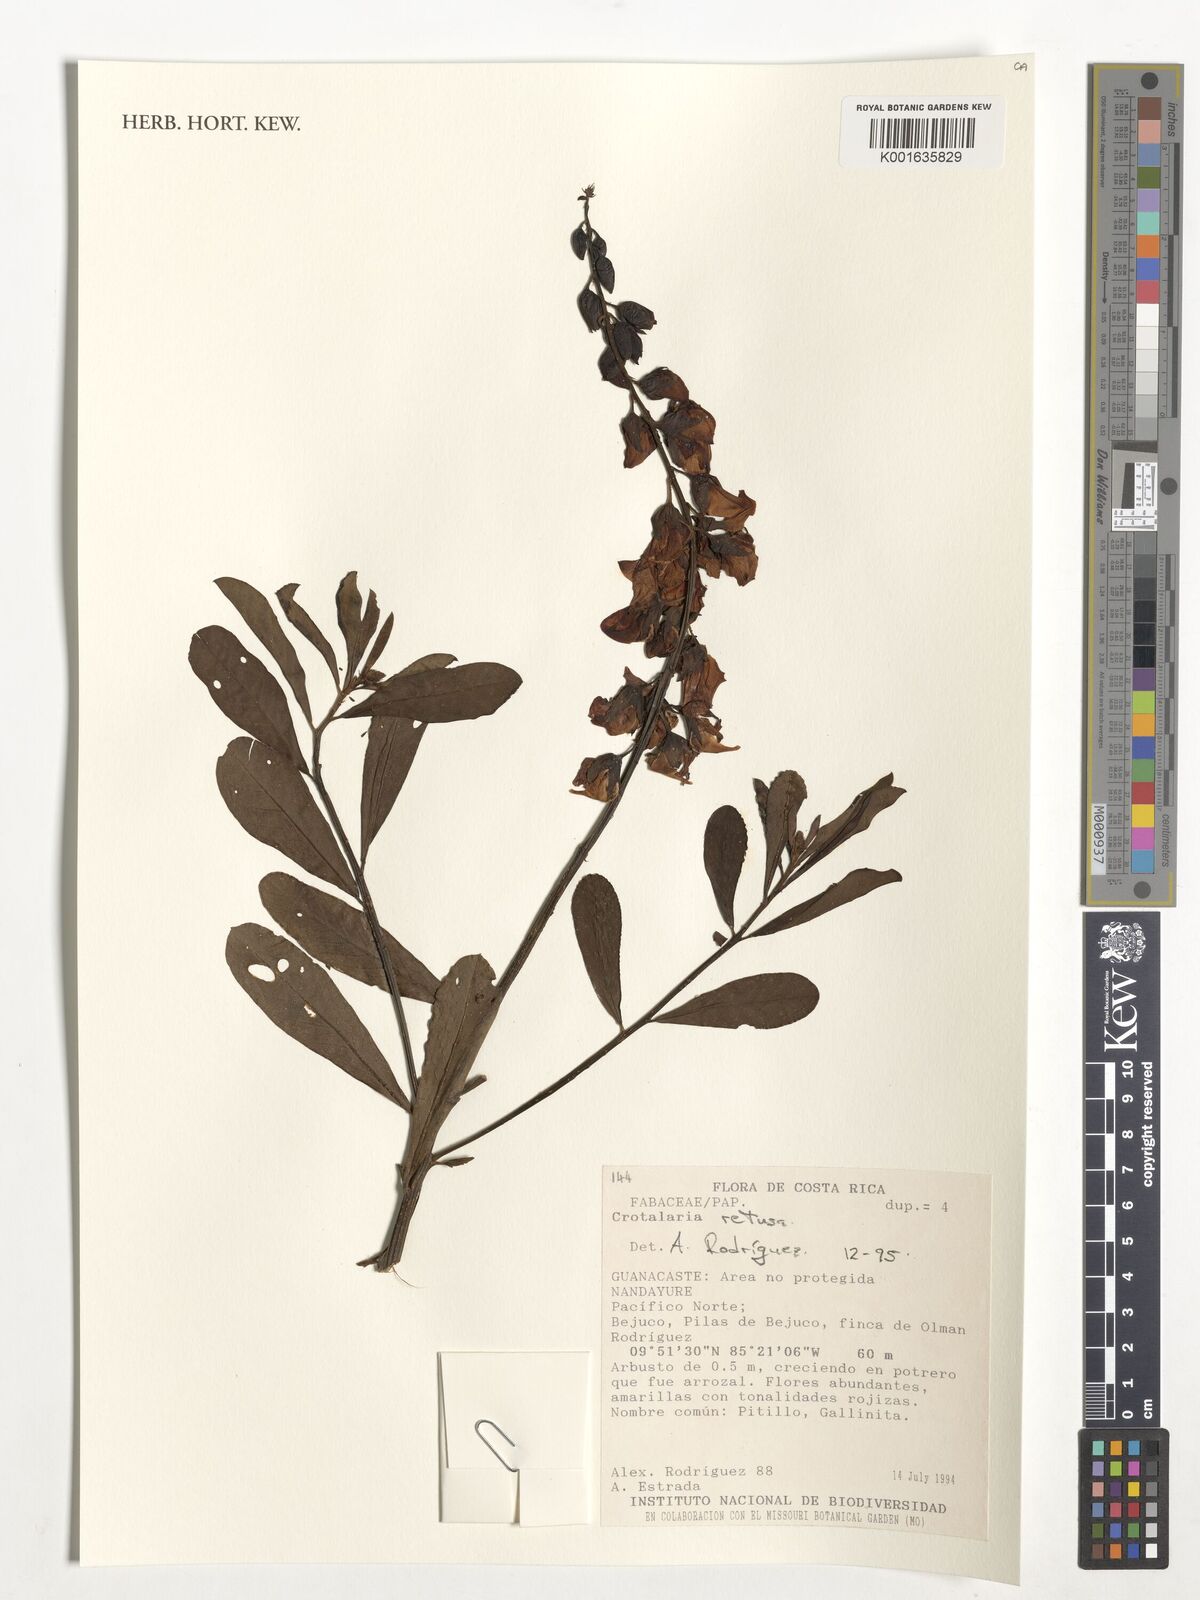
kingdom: Plantae
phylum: Tracheophyta
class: Magnoliopsida
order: Fabales
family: Fabaceae
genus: Crotalaria
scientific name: Crotalaria retusa
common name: Rattleweed
